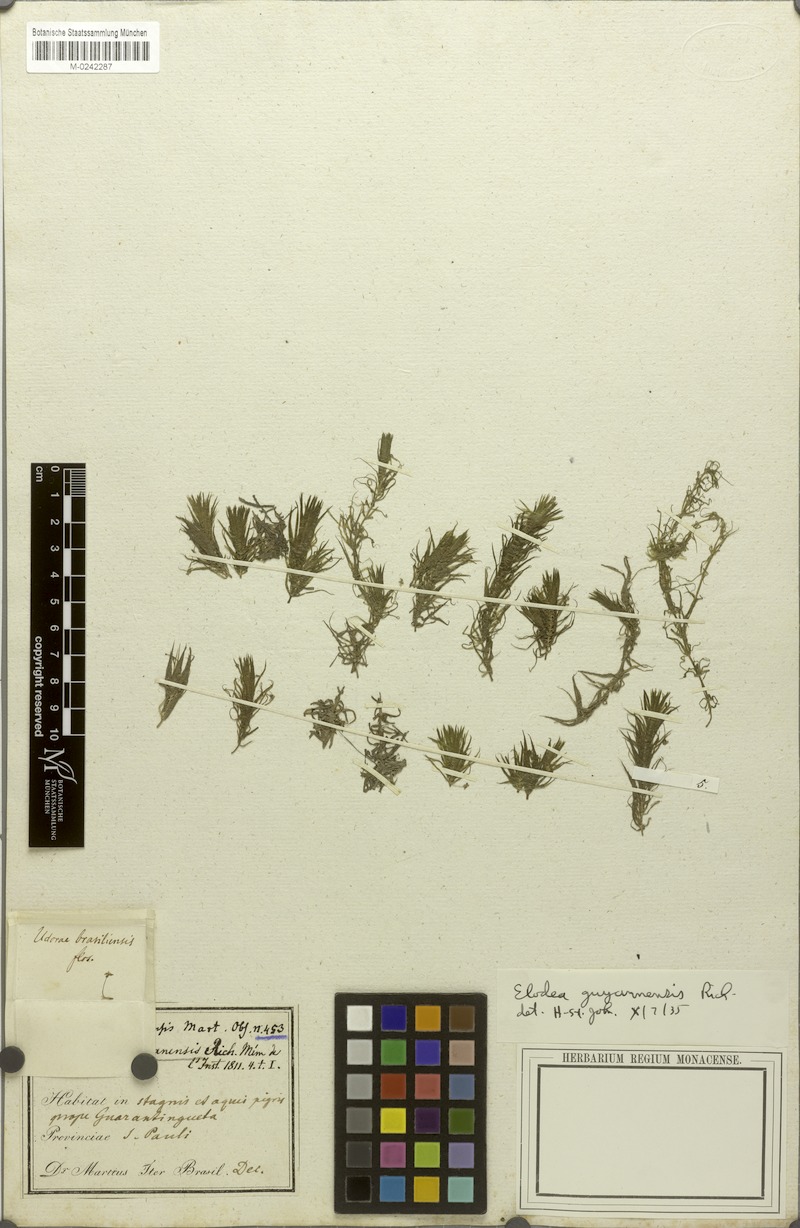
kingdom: Plantae
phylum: Tracheophyta
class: Liliopsida
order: Alismatales
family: Hydrocharitaceae
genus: Elodea
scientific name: Elodea granatensis
